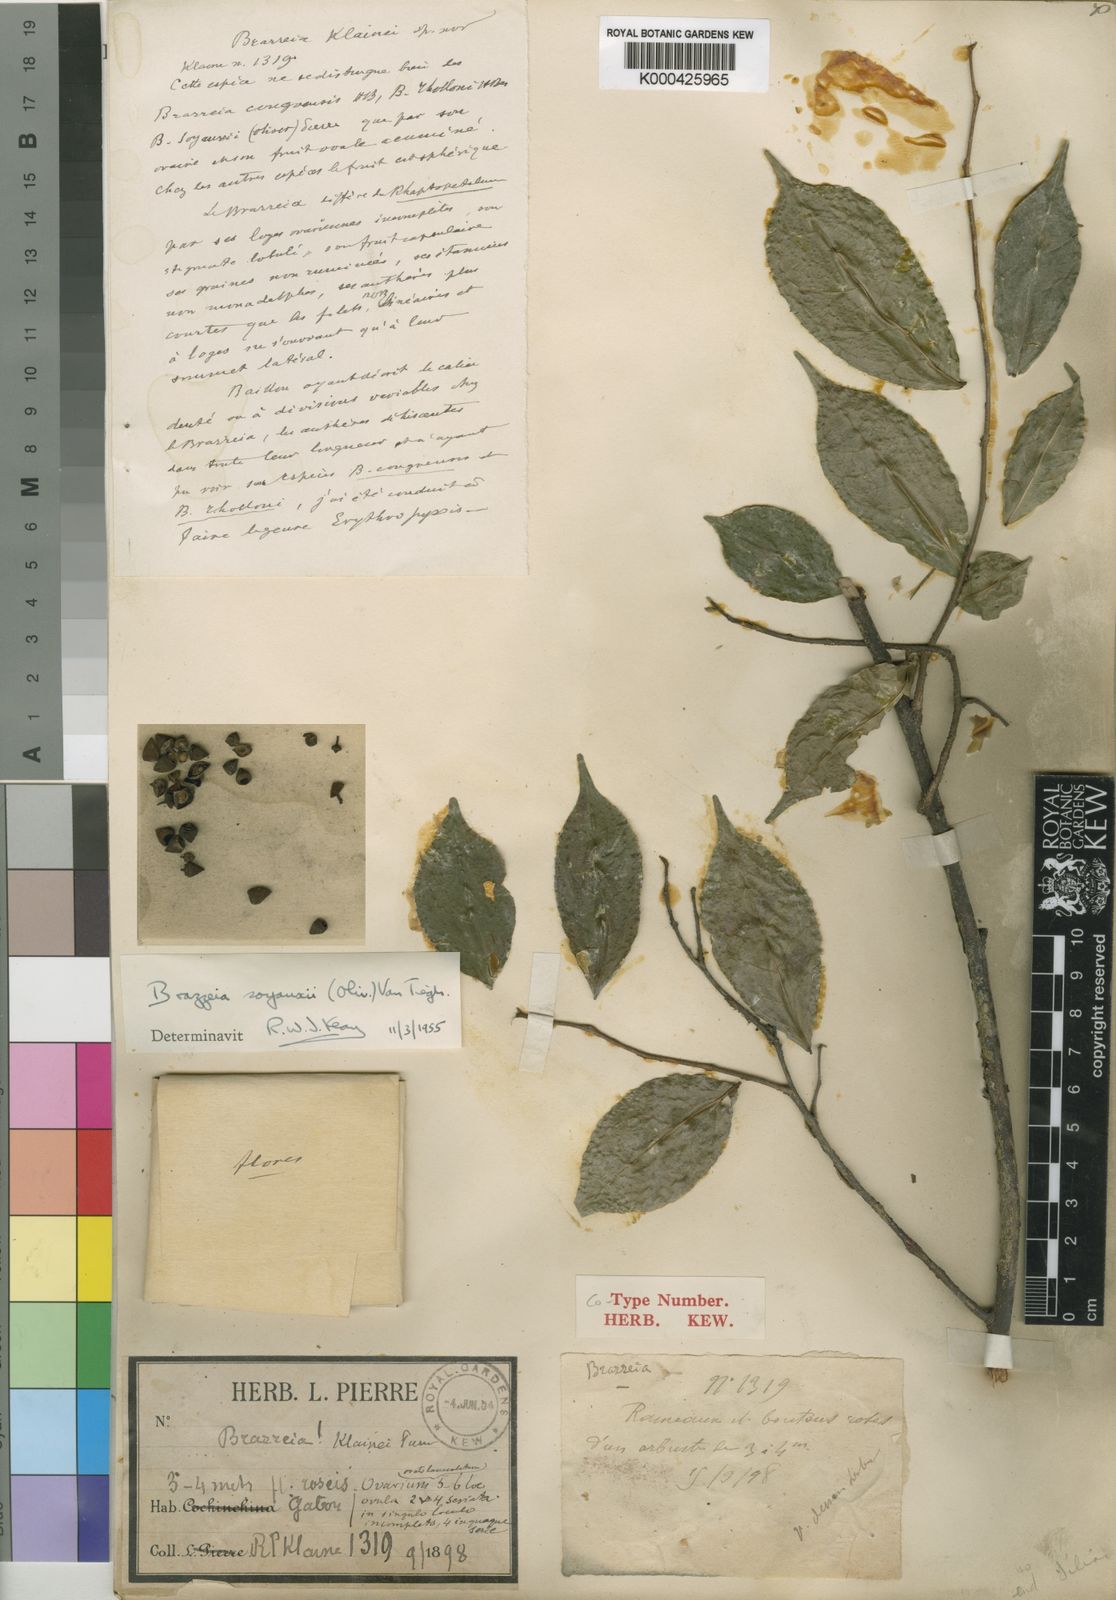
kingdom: Plantae
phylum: Tracheophyta
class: Magnoliopsida
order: Ericales
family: Lecythidaceae
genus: Brazzeia
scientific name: Brazzeia soyauxii
